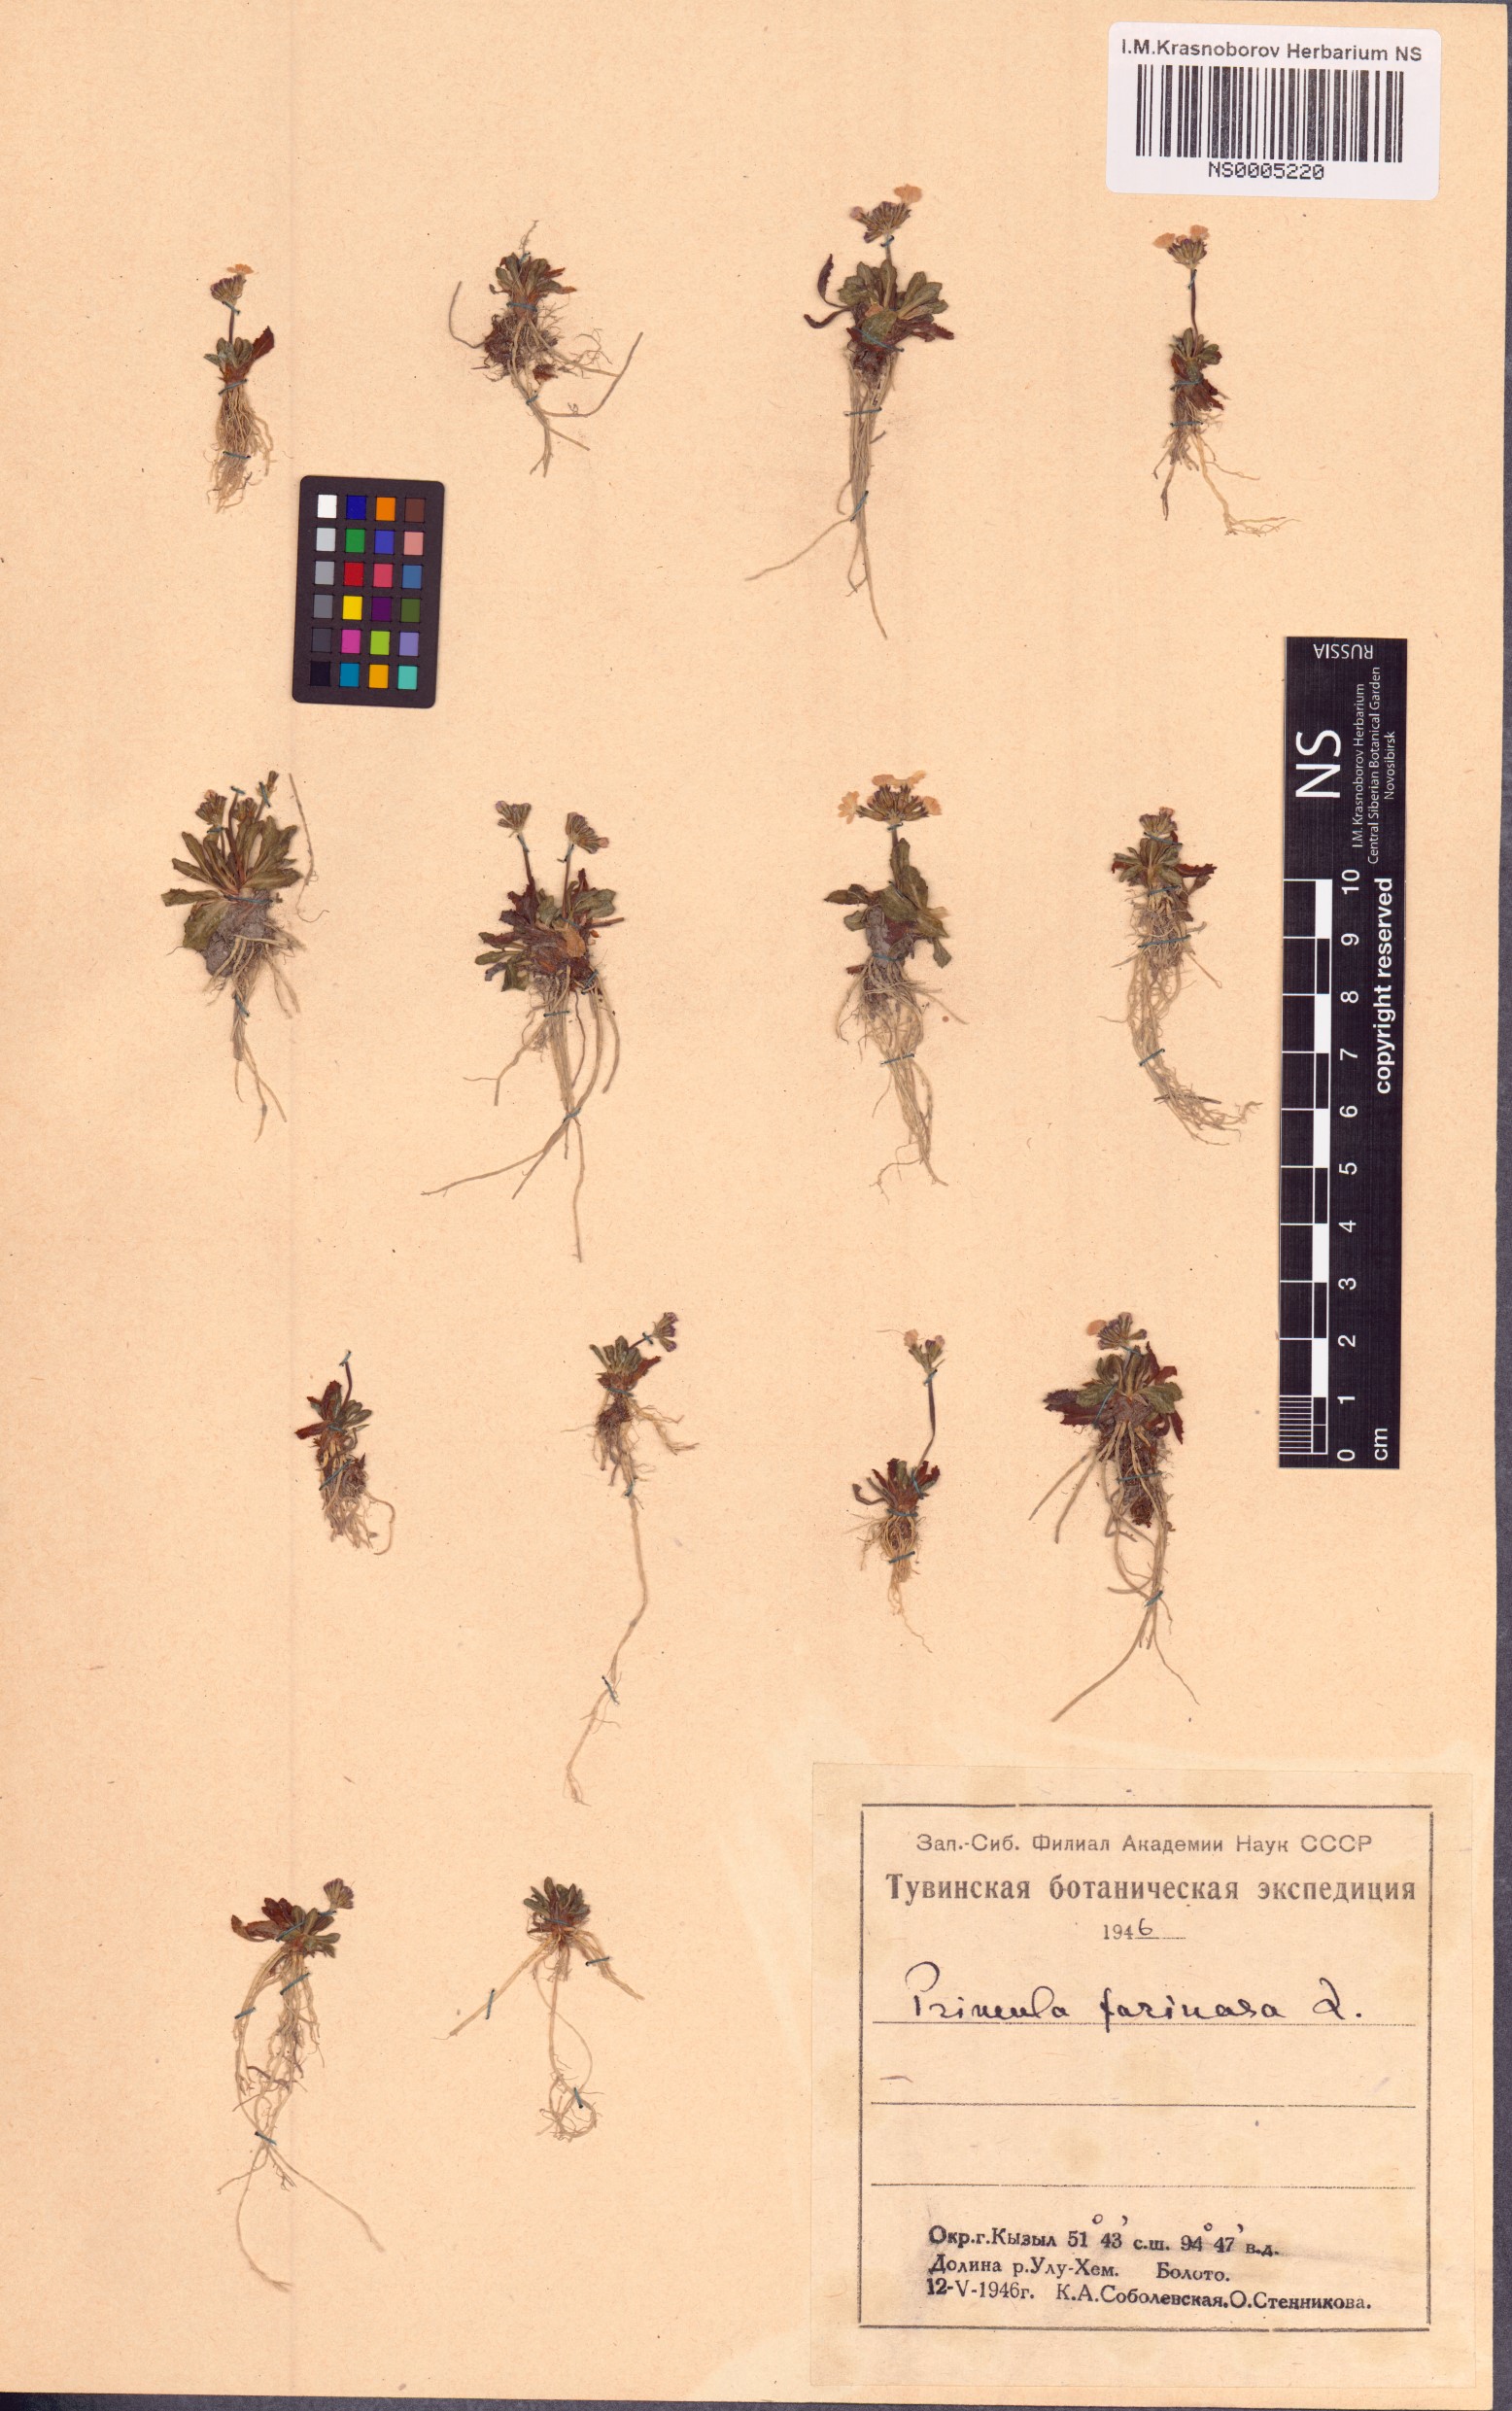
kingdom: Plantae
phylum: Tracheophyta
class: Magnoliopsida
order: Ericales
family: Primulaceae
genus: Primula
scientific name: Primula farinosa
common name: Bird's-eye primrose
